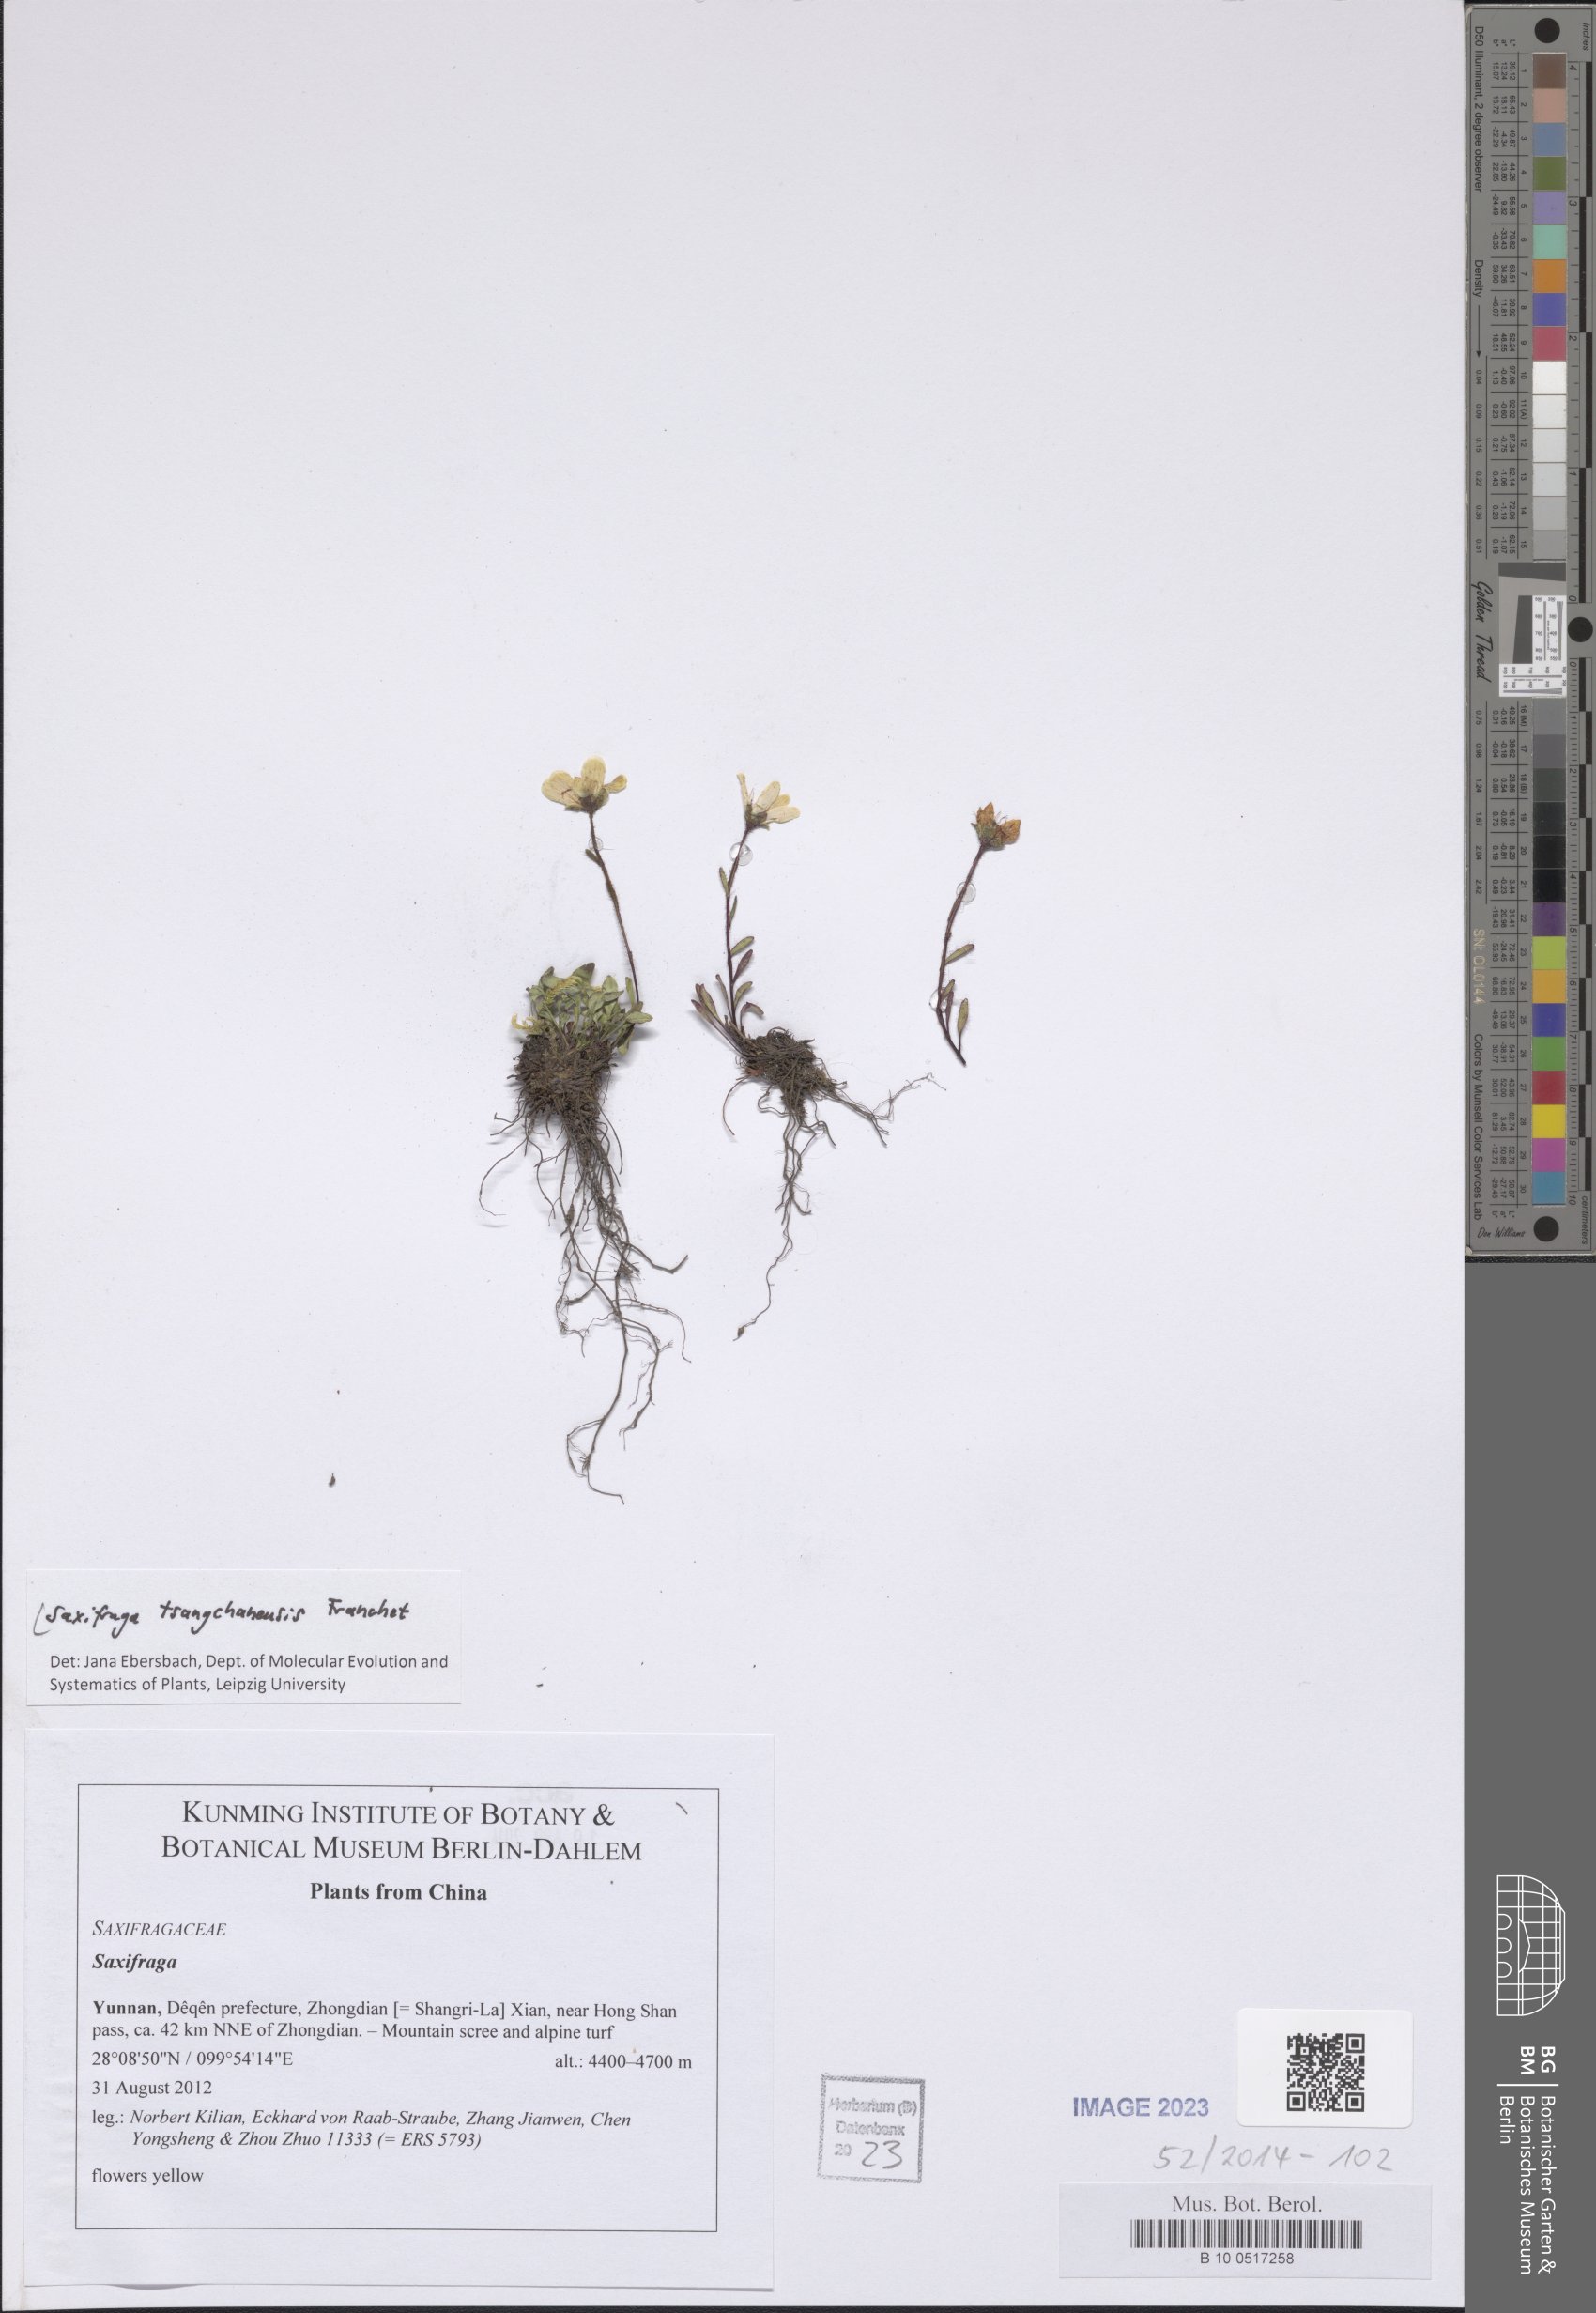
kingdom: Plantae
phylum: Tracheophyta
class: Magnoliopsida
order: Saxifragales
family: Saxifragaceae
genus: Saxifraga
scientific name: Saxifraga tsangchanensis
